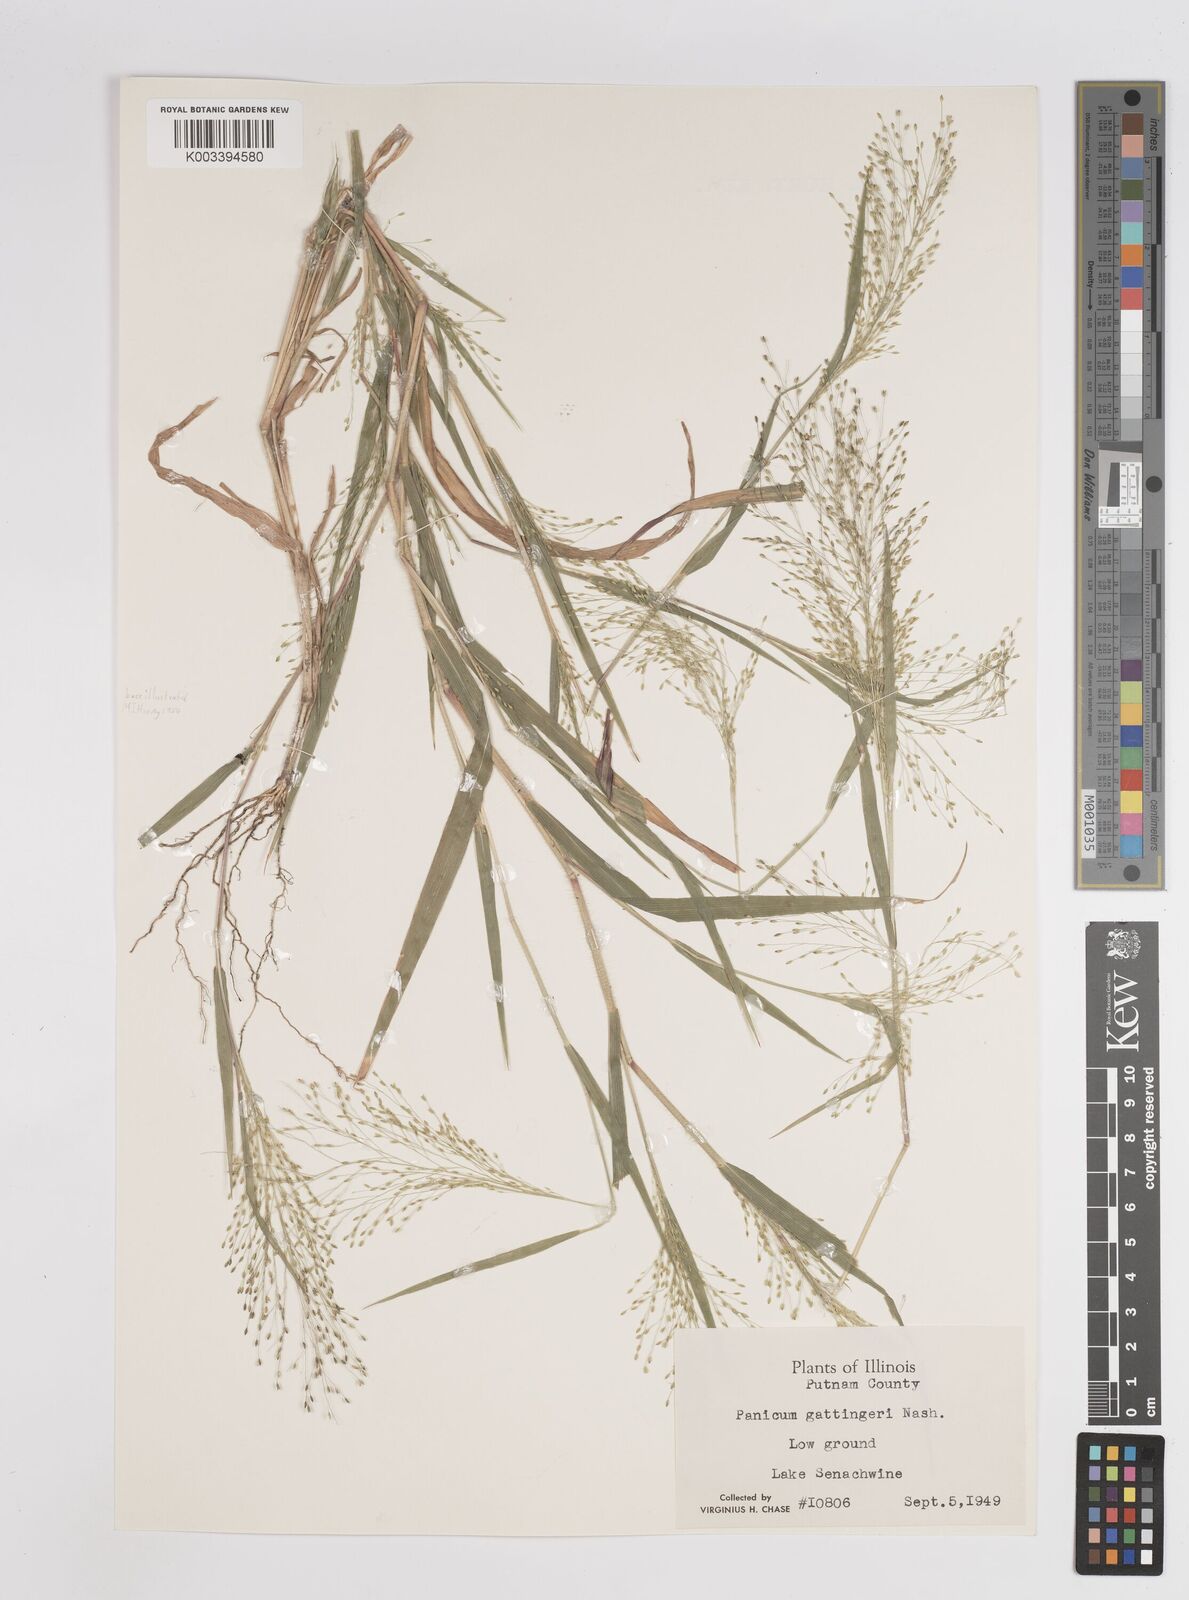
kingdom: Plantae
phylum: Tracheophyta
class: Liliopsida
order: Poales
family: Poaceae
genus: Panicum
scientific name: Panicum gattingeri
